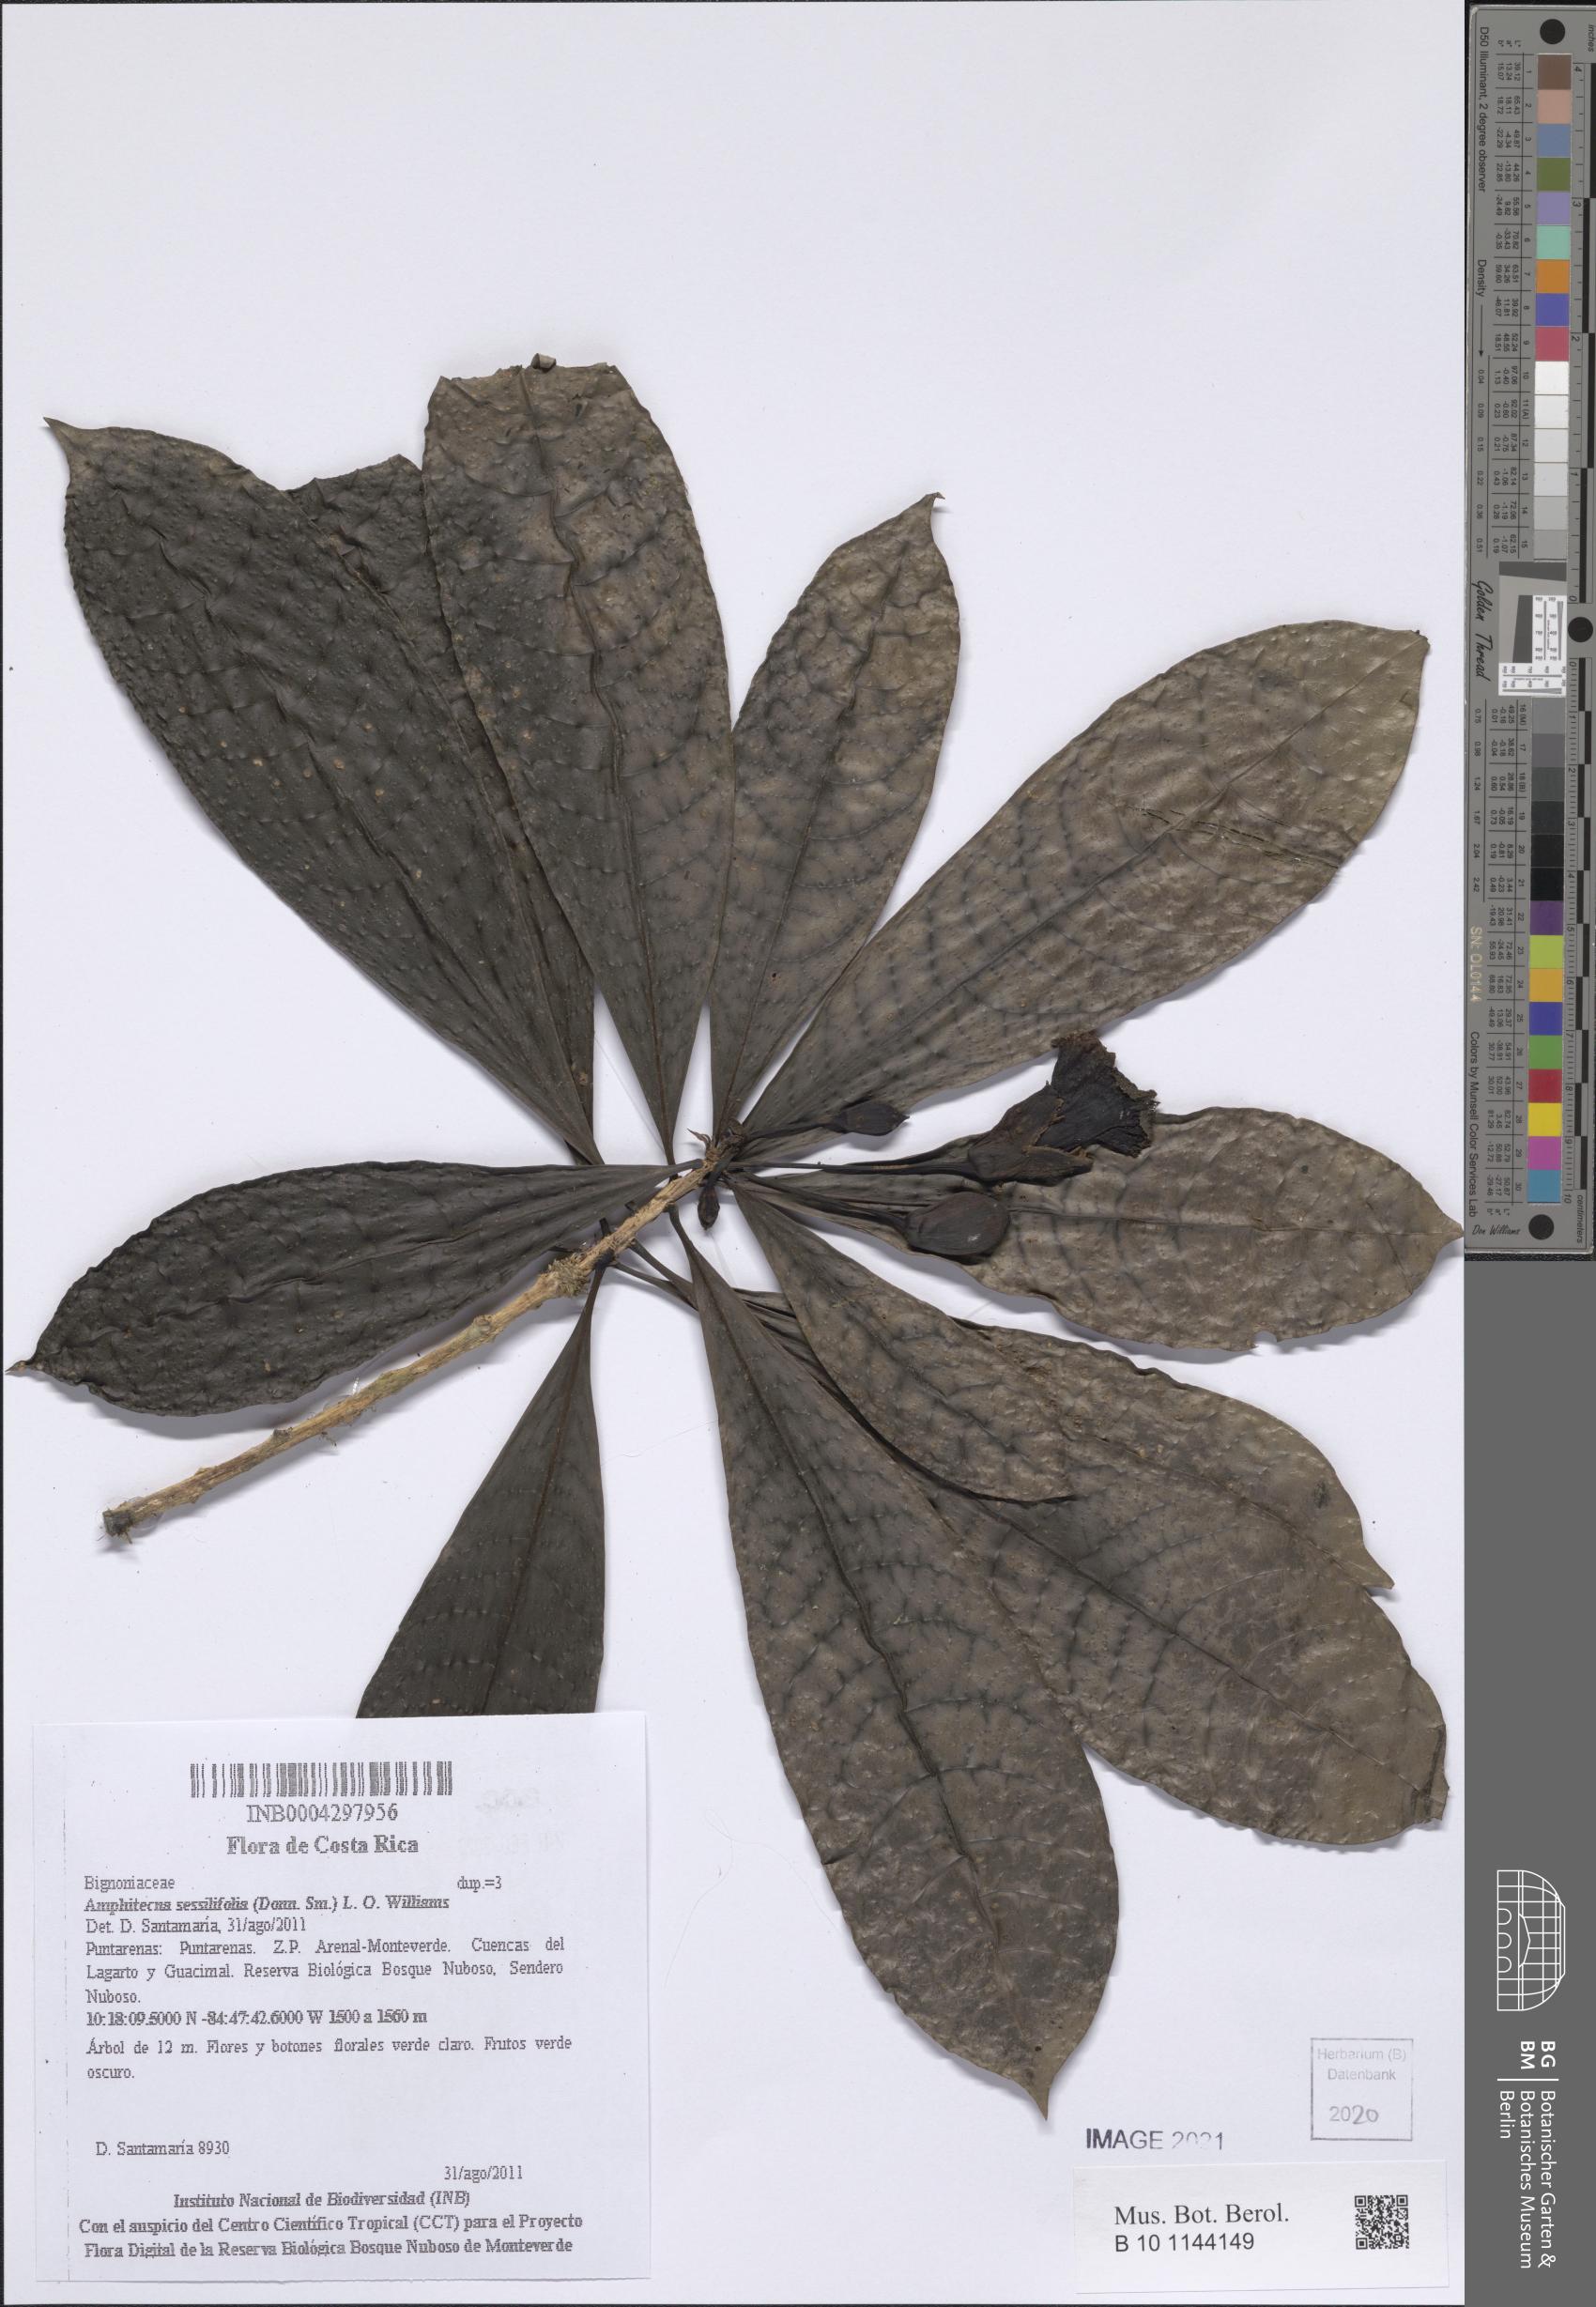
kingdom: Plantae
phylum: Tracheophyta
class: Magnoliopsida
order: Lamiales
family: Bignoniaceae
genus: Amphitecna
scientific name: Amphitecna sessilifolia
